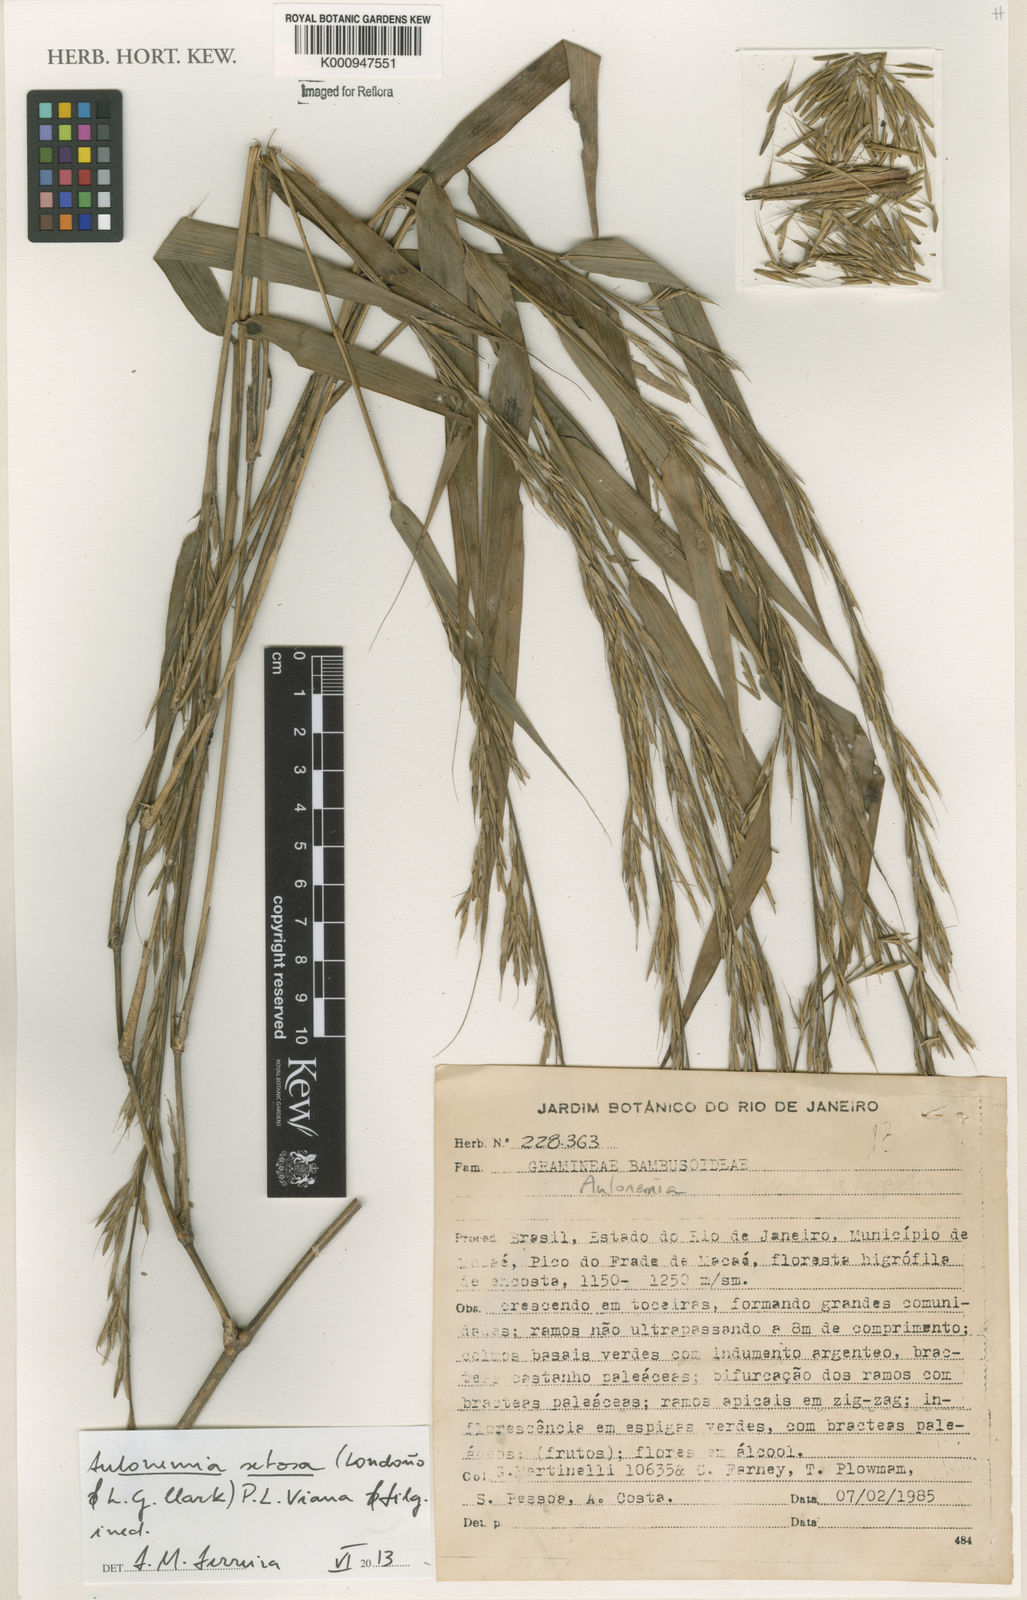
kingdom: Plantae
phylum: Tracheophyta
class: Liliopsida
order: Poales
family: Poaceae
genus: Aulonemia
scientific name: Aulonemia radiata
